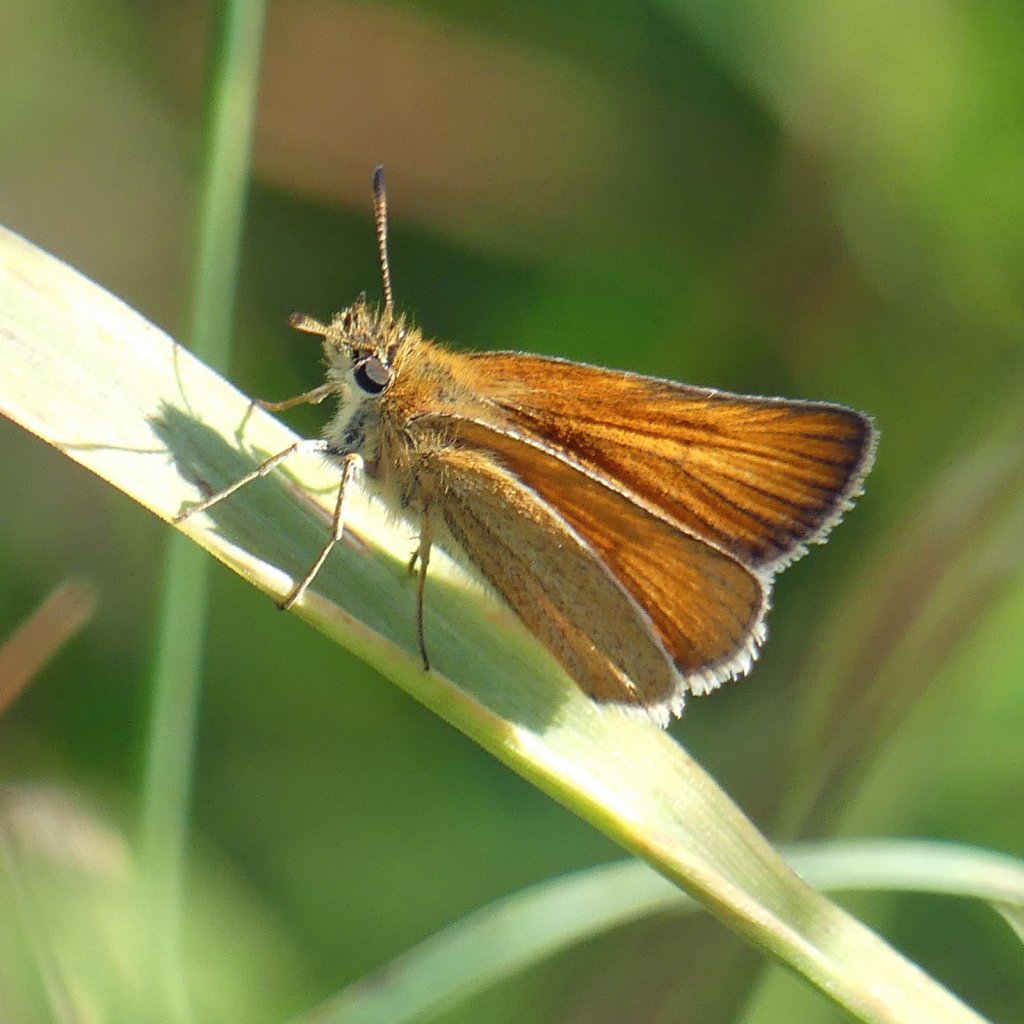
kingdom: Animalia
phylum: Arthropoda
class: Insecta
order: Lepidoptera
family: Hesperiidae
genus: Thymelicus
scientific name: Thymelicus lineola
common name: European Skipper
